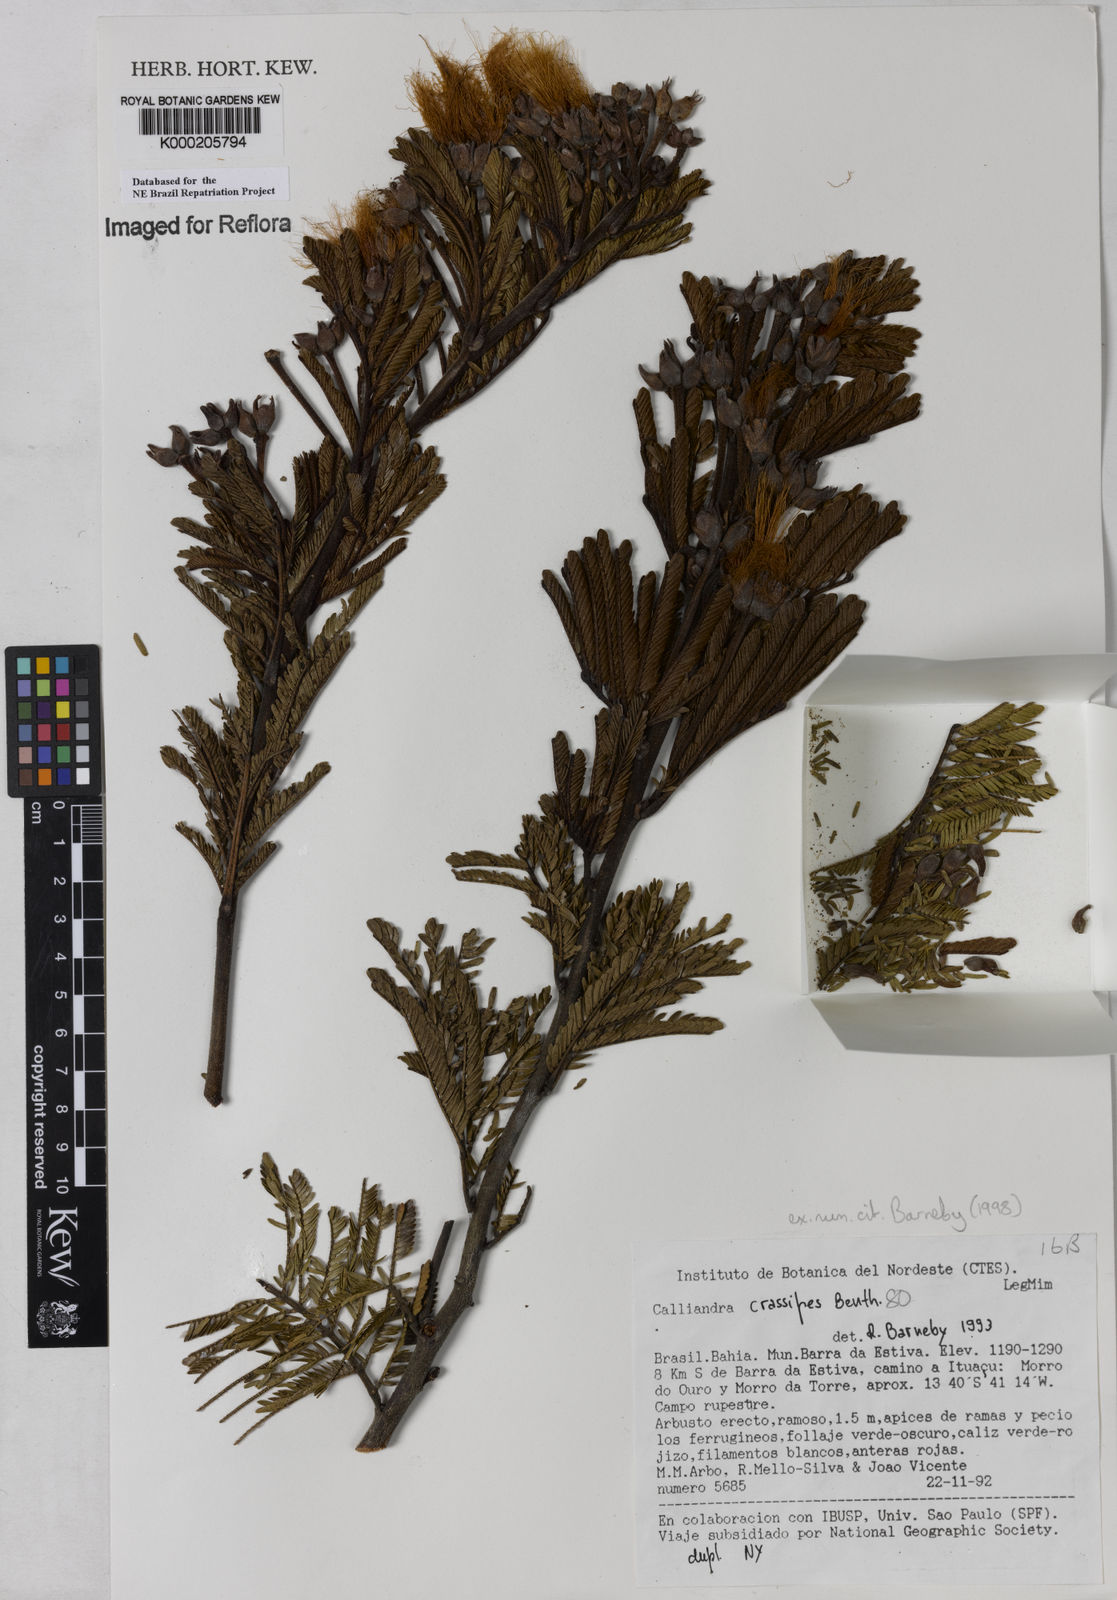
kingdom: Plantae
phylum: Tracheophyta
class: Magnoliopsida
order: Fabales
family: Fabaceae
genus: Calliandra
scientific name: Calliandra crassipes
